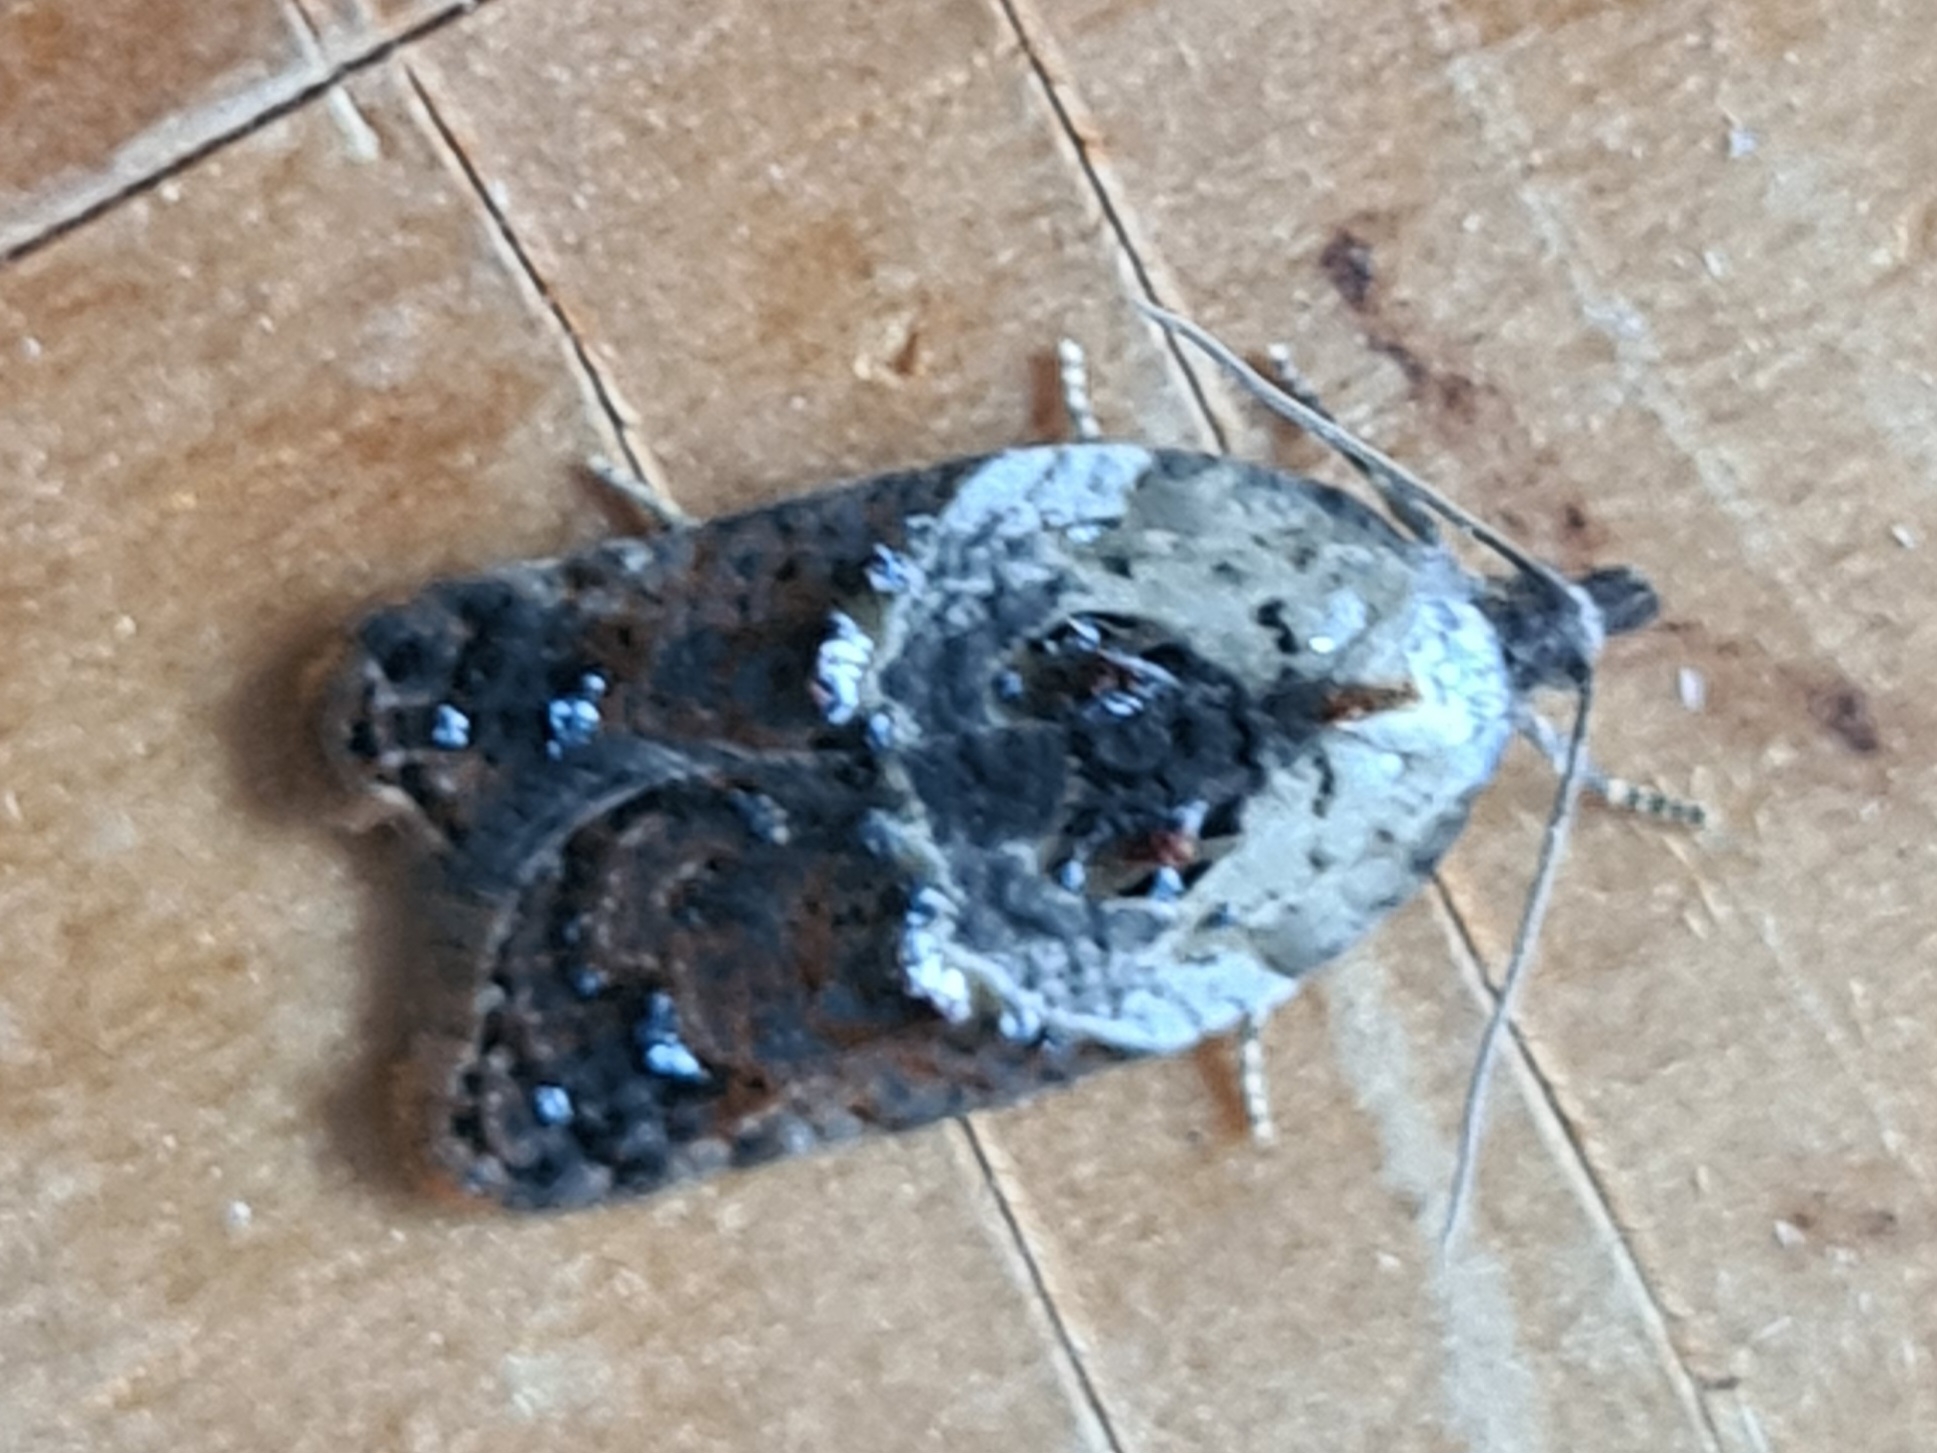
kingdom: Animalia
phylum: Arthropoda
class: Insecta
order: Lepidoptera
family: Tortricidae
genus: Acleris
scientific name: Acleris variegana
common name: Hvidbroget rosenvikler
